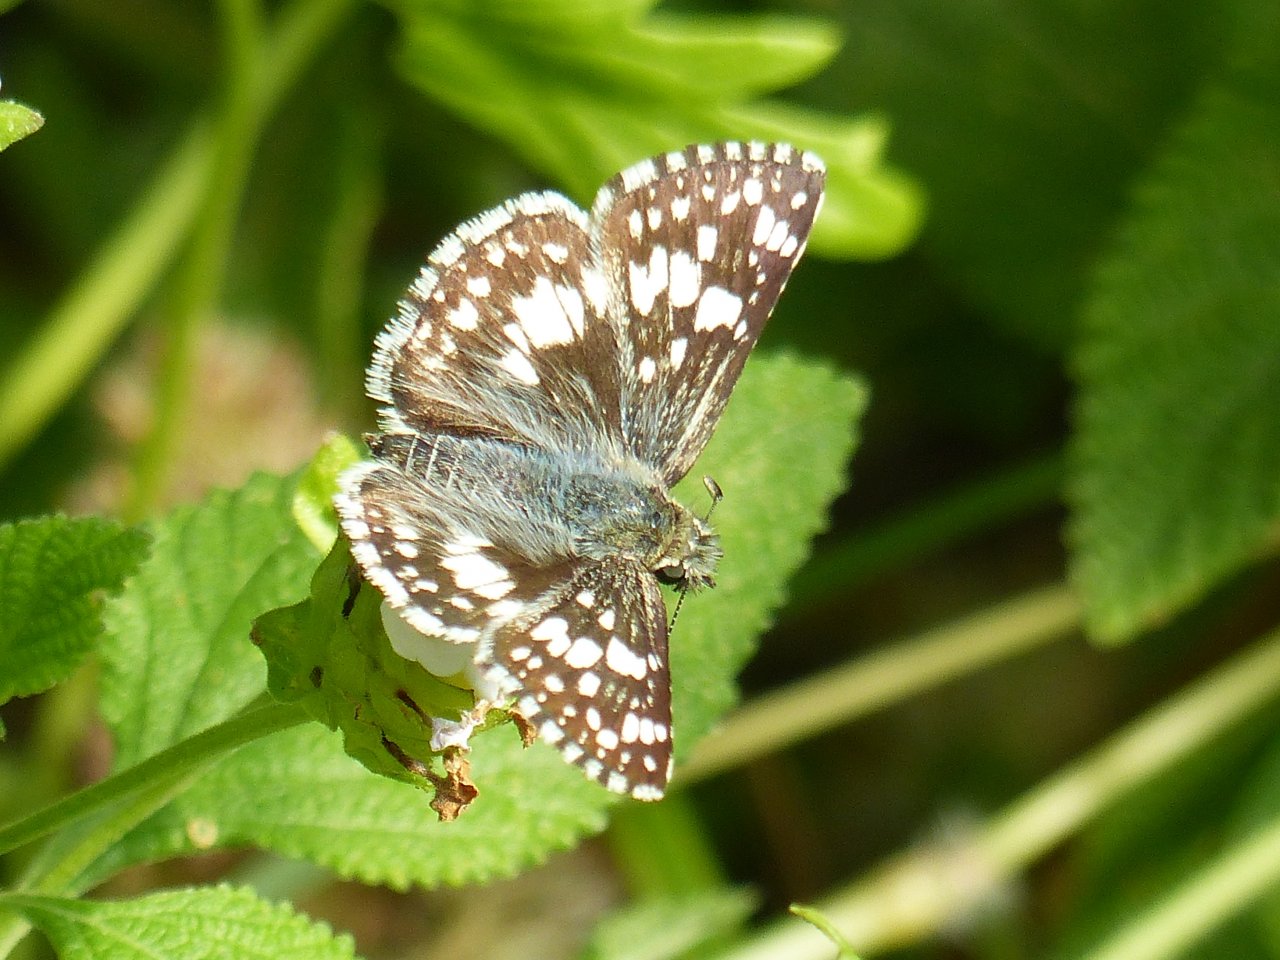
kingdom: Animalia
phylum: Arthropoda
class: Insecta
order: Lepidoptera
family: Hesperiidae
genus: Pyrgus
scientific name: Pyrgus communis
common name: White Checkered-Skipper
